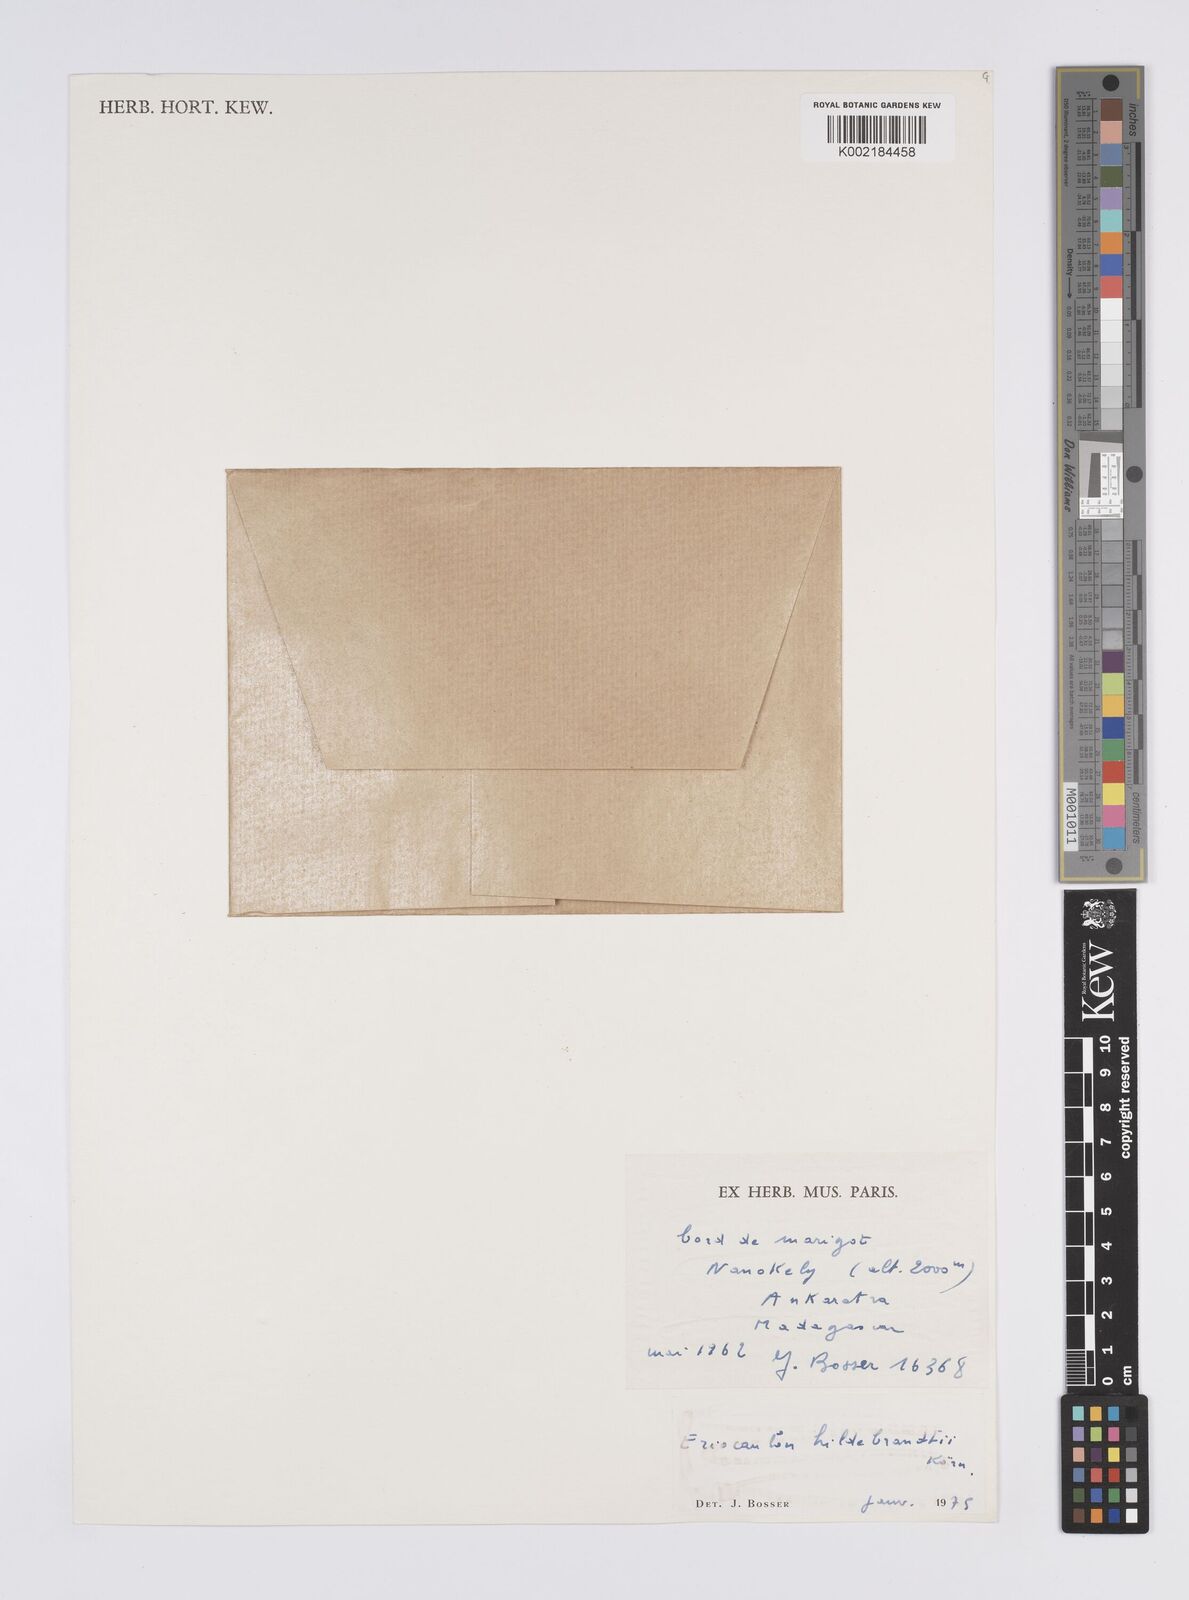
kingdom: Plantae
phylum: Tracheophyta
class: Liliopsida
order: Poales
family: Eriocaulaceae
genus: Eriocaulon
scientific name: Eriocaulon hildebrandtii
